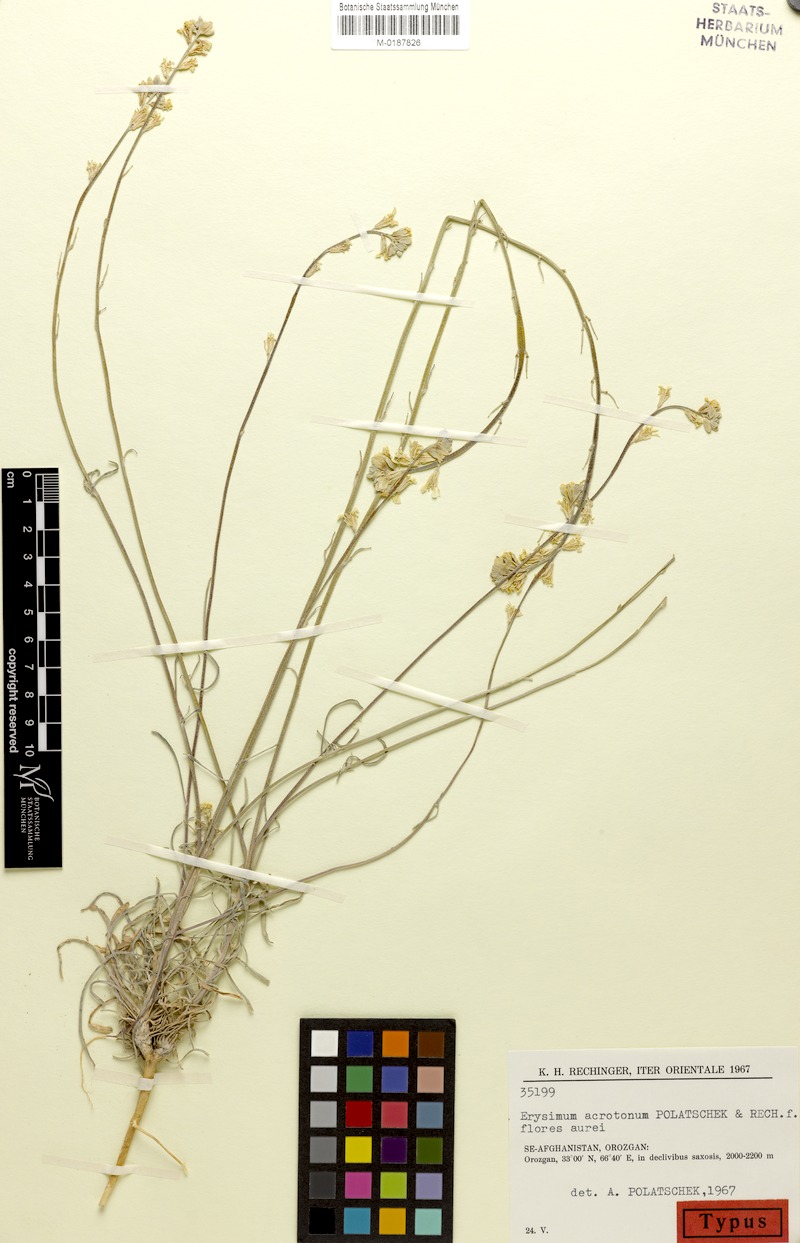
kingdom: Plantae
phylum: Tracheophyta
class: Magnoliopsida
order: Brassicales
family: Brassicaceae
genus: Erysimum
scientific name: Erysimum acrotonum
